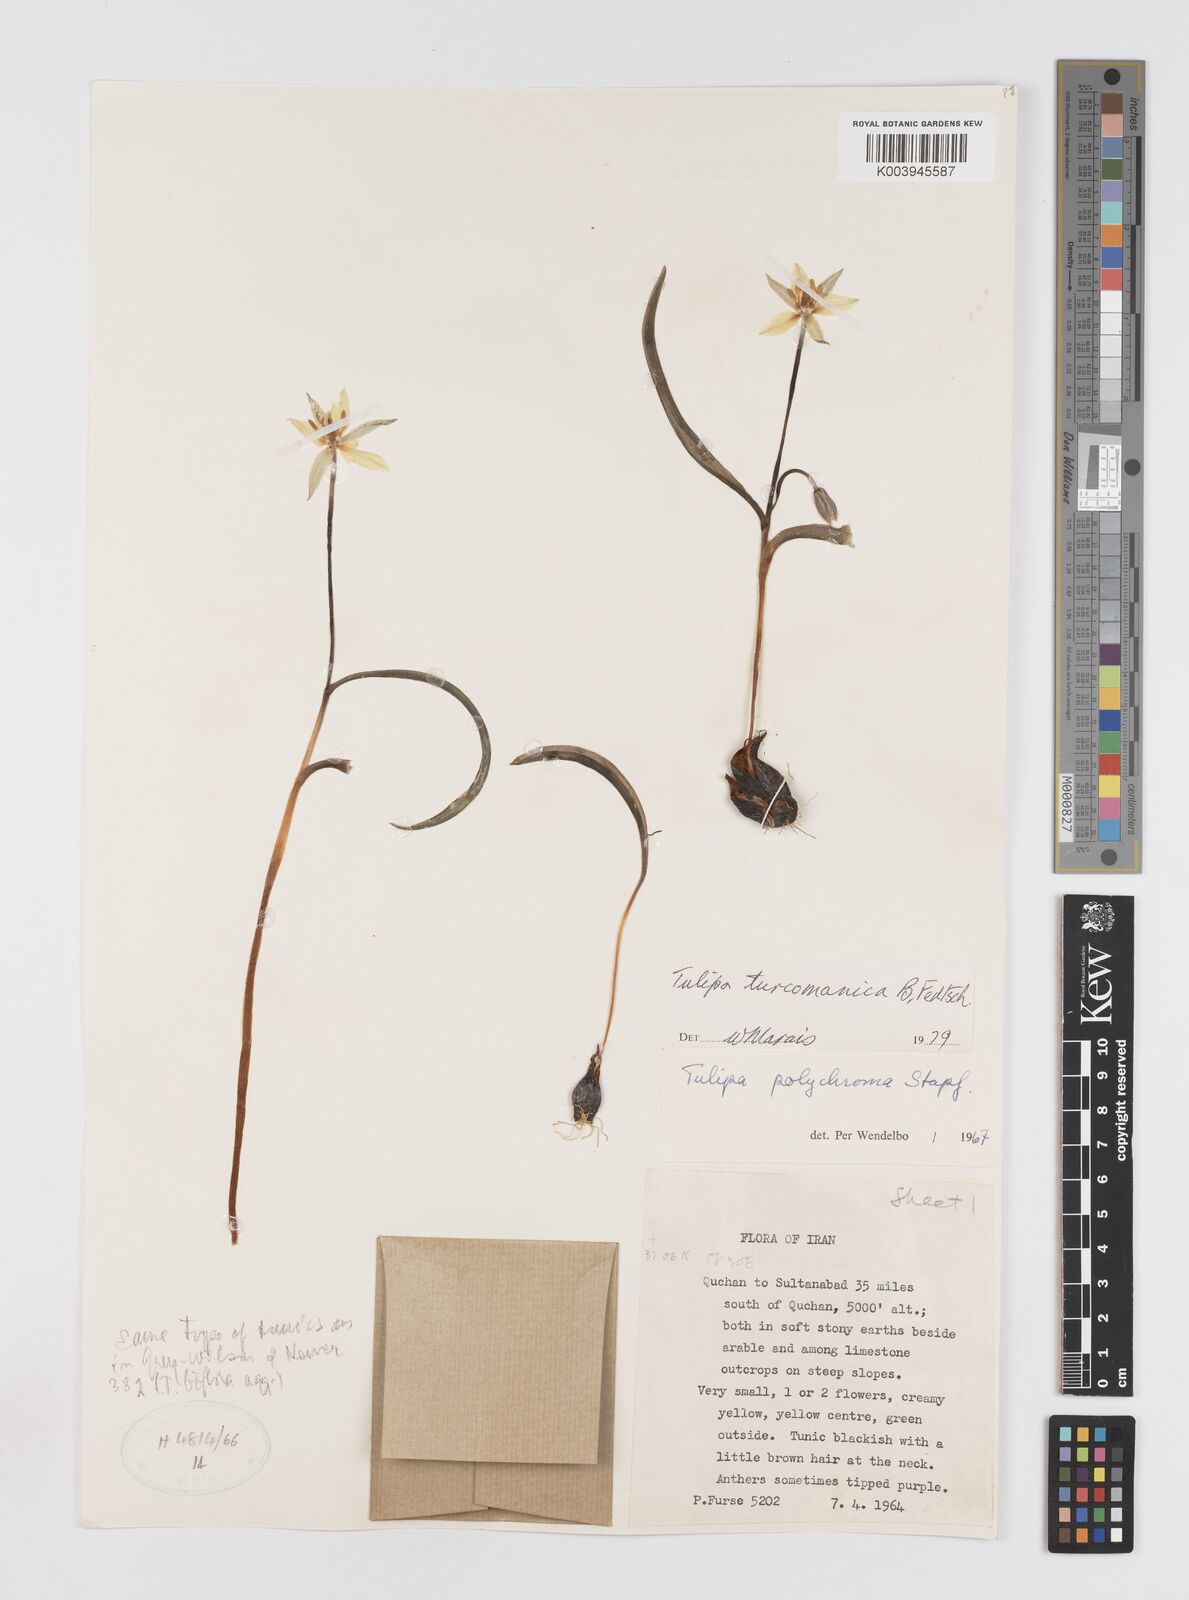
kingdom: Plantae
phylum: Tracheophyta
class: Liliopsida
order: Liliales
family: Liliaceae
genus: Tulipa
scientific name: Tulipa biflora
